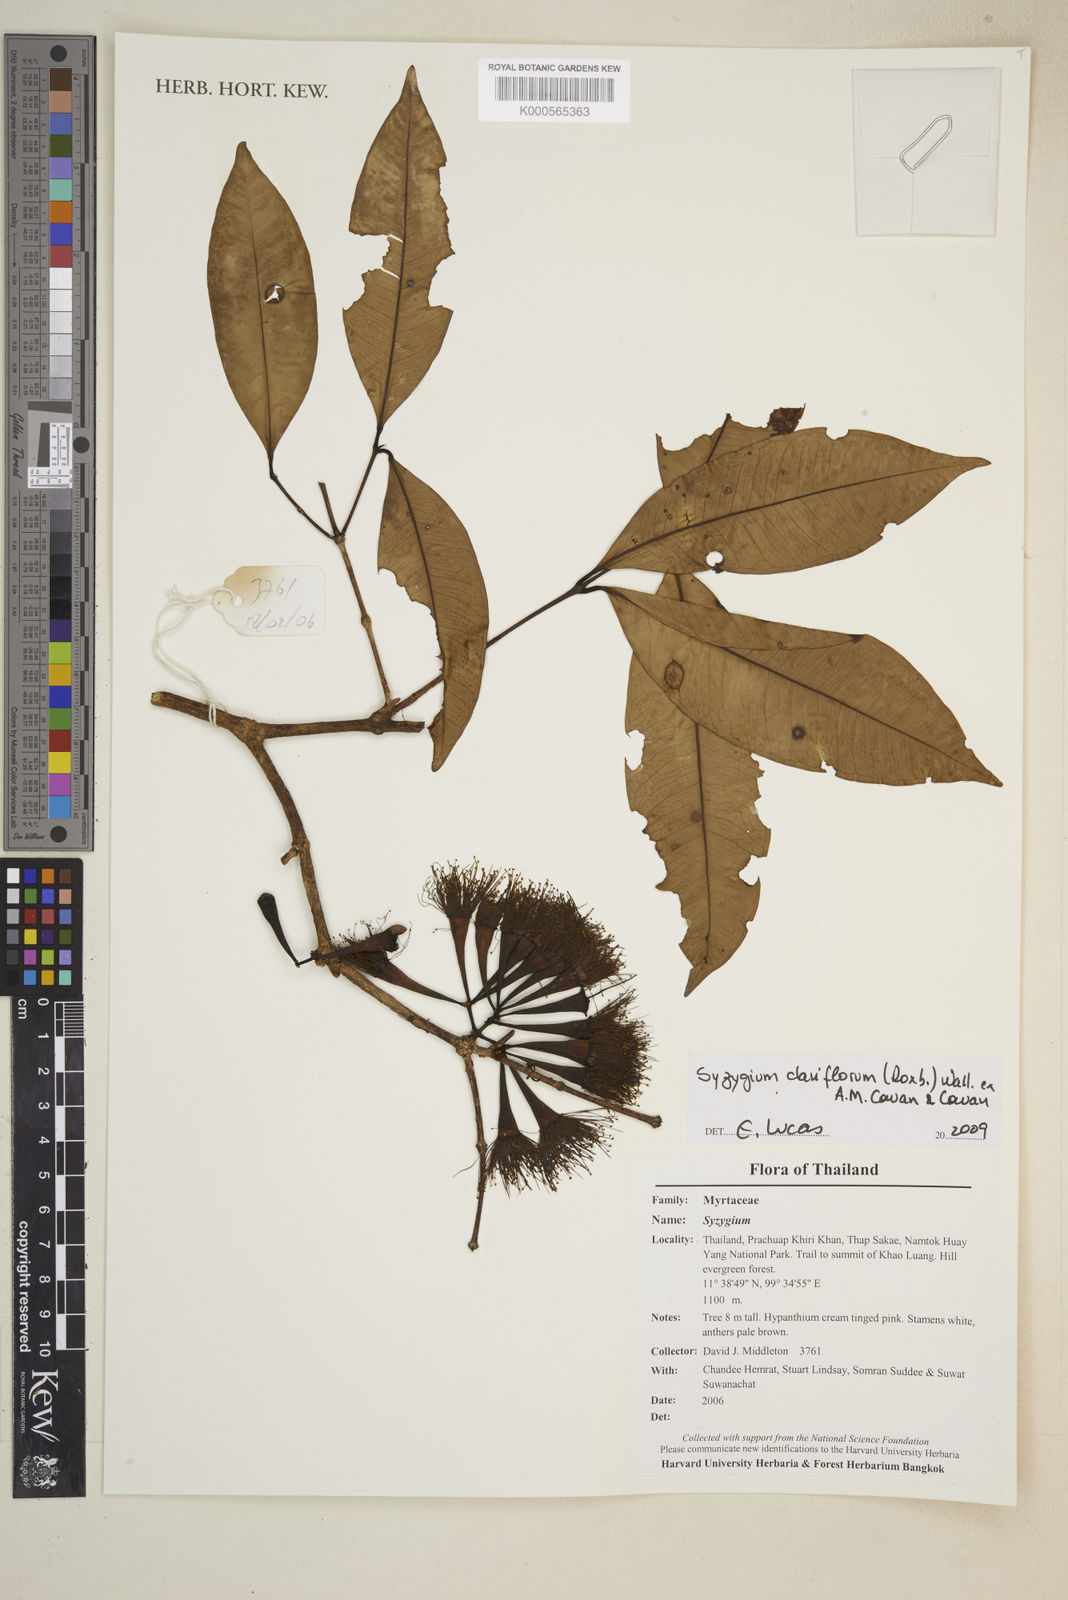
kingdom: Plantae
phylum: Tracheophyta
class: Magnoliopsida
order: Myrtales
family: Myrtaceae
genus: Syzygium
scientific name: Syzygium
